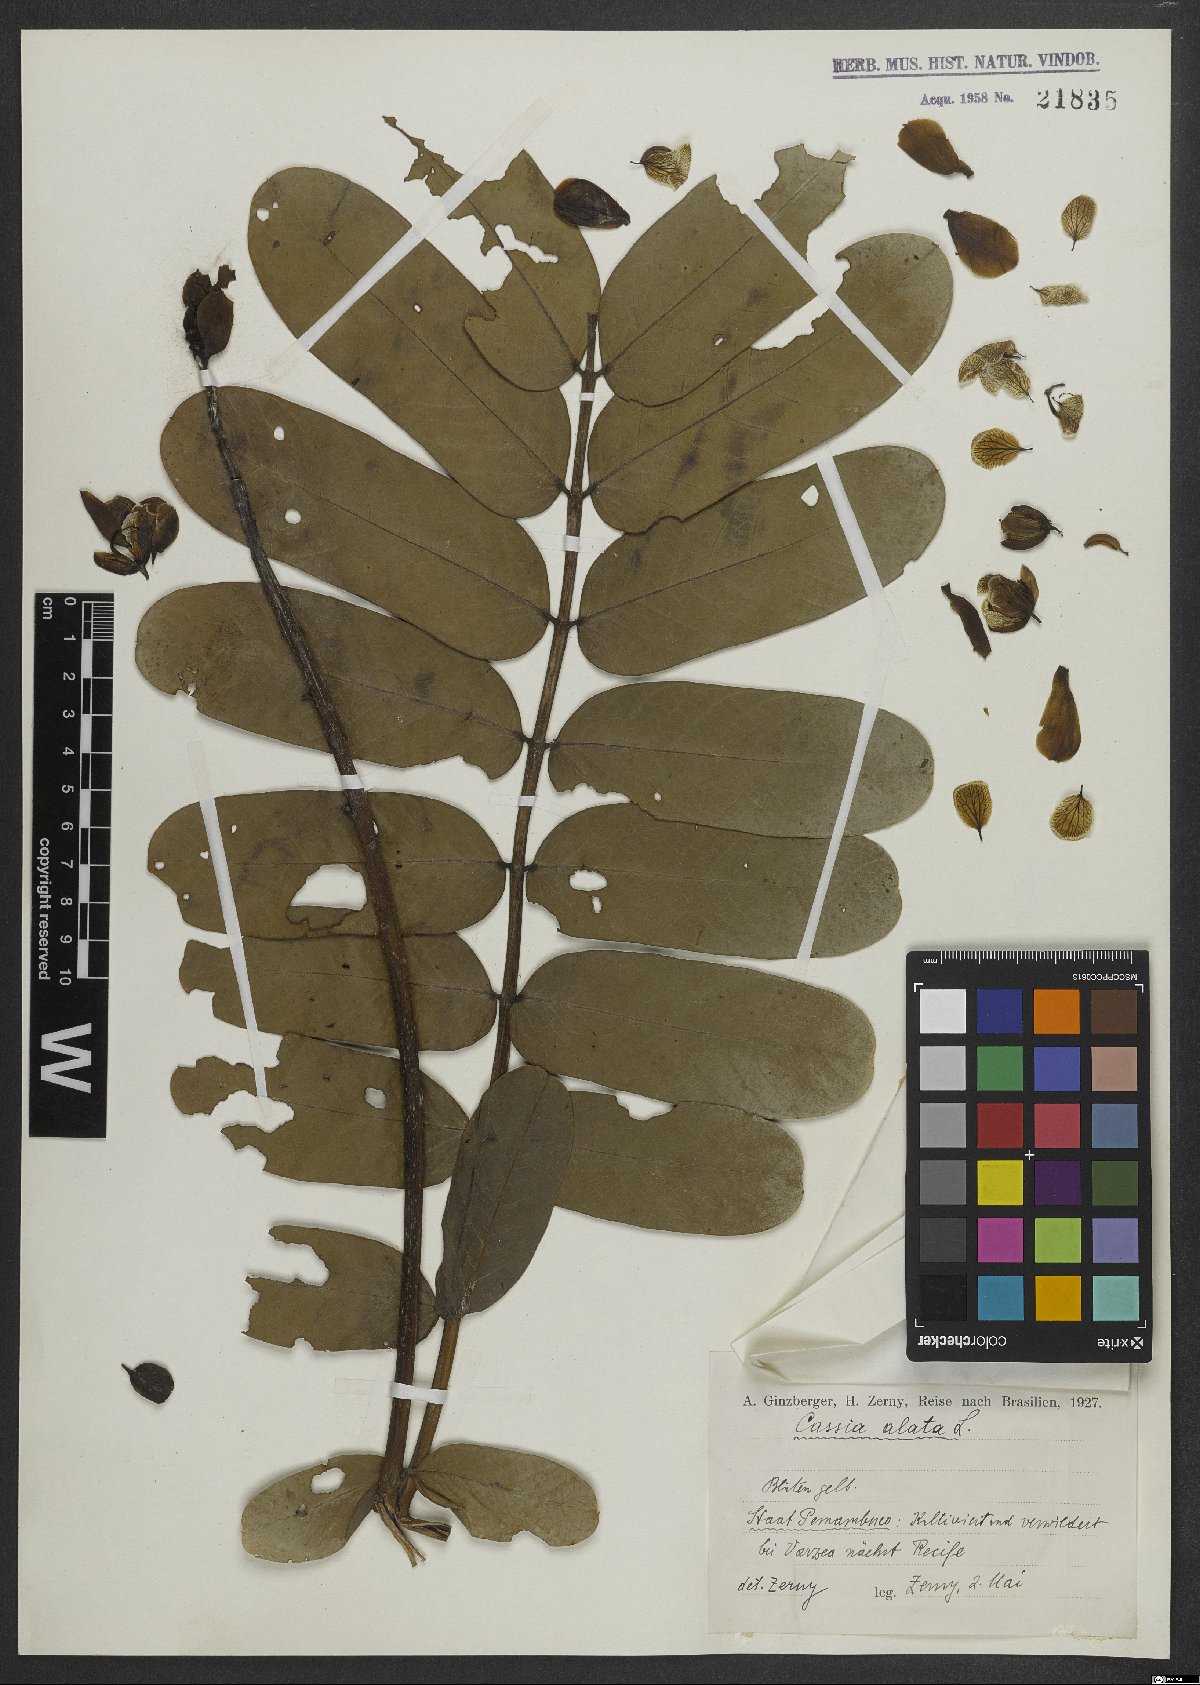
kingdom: Plantae
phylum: Tracheophyta
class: Magnoliopsida
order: Fabales
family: Fabaceae
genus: Senna
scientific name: Senna alata
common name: Emperor's candlesticks
